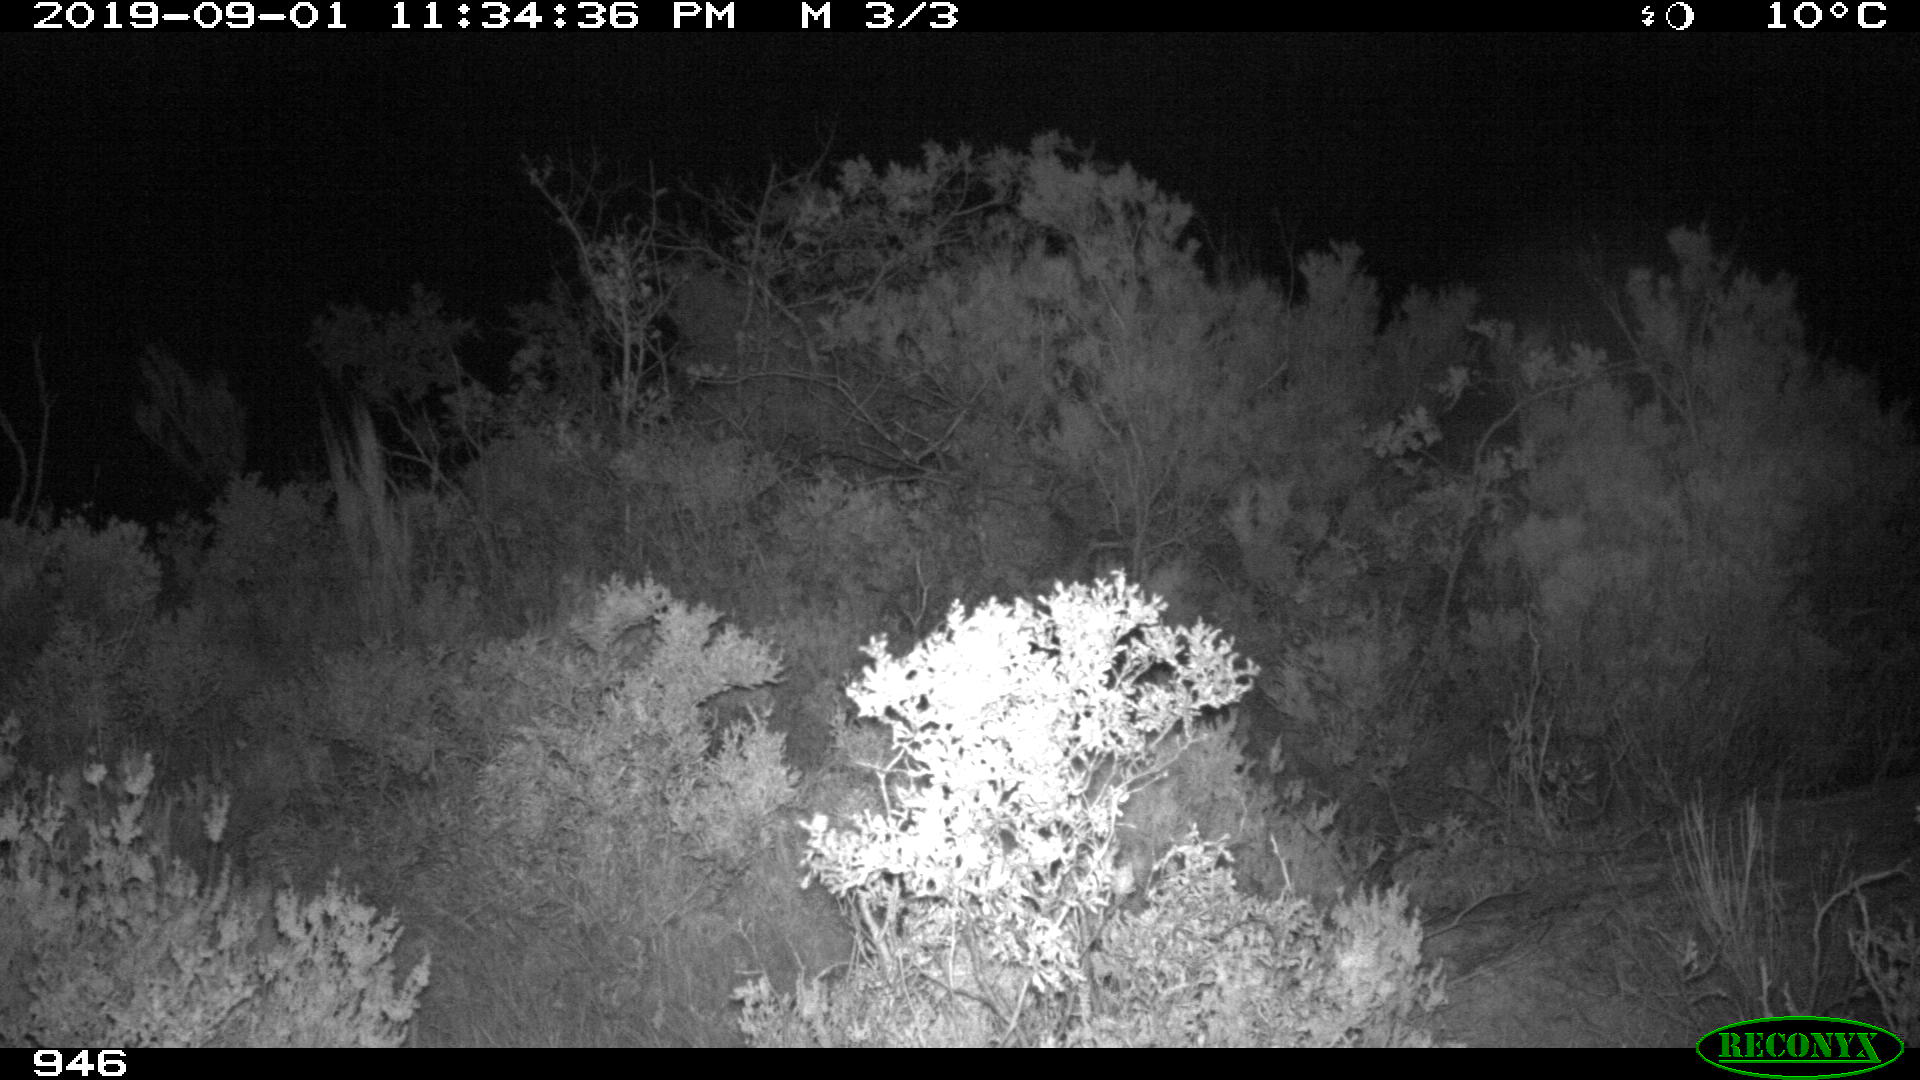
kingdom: Animalia
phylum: Chordata
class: Mammalia
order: Carnivora
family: Canidae
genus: Vulpes
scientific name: Vulpes vulpes
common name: Red fox
